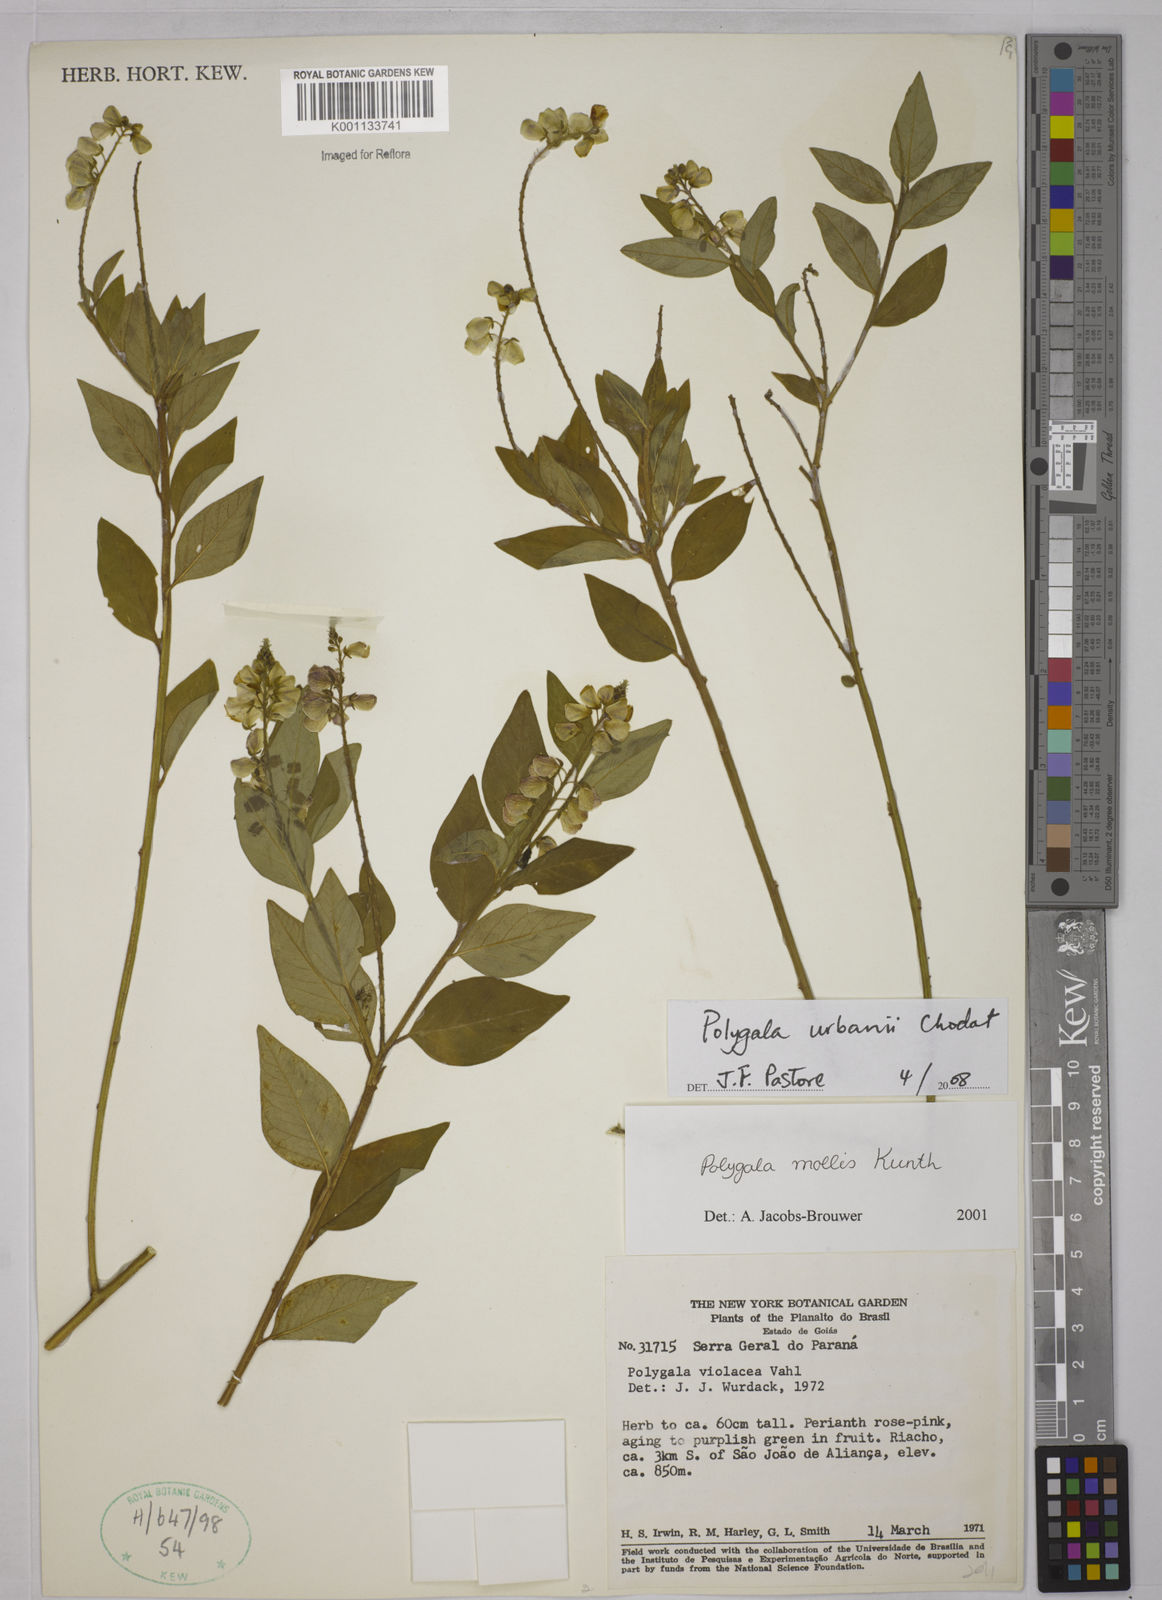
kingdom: Plantae
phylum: Tracheophyta
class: Magnoliopsida
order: Fabales
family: Polygalaceae
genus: Asemeia
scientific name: Asemeia monninoides
